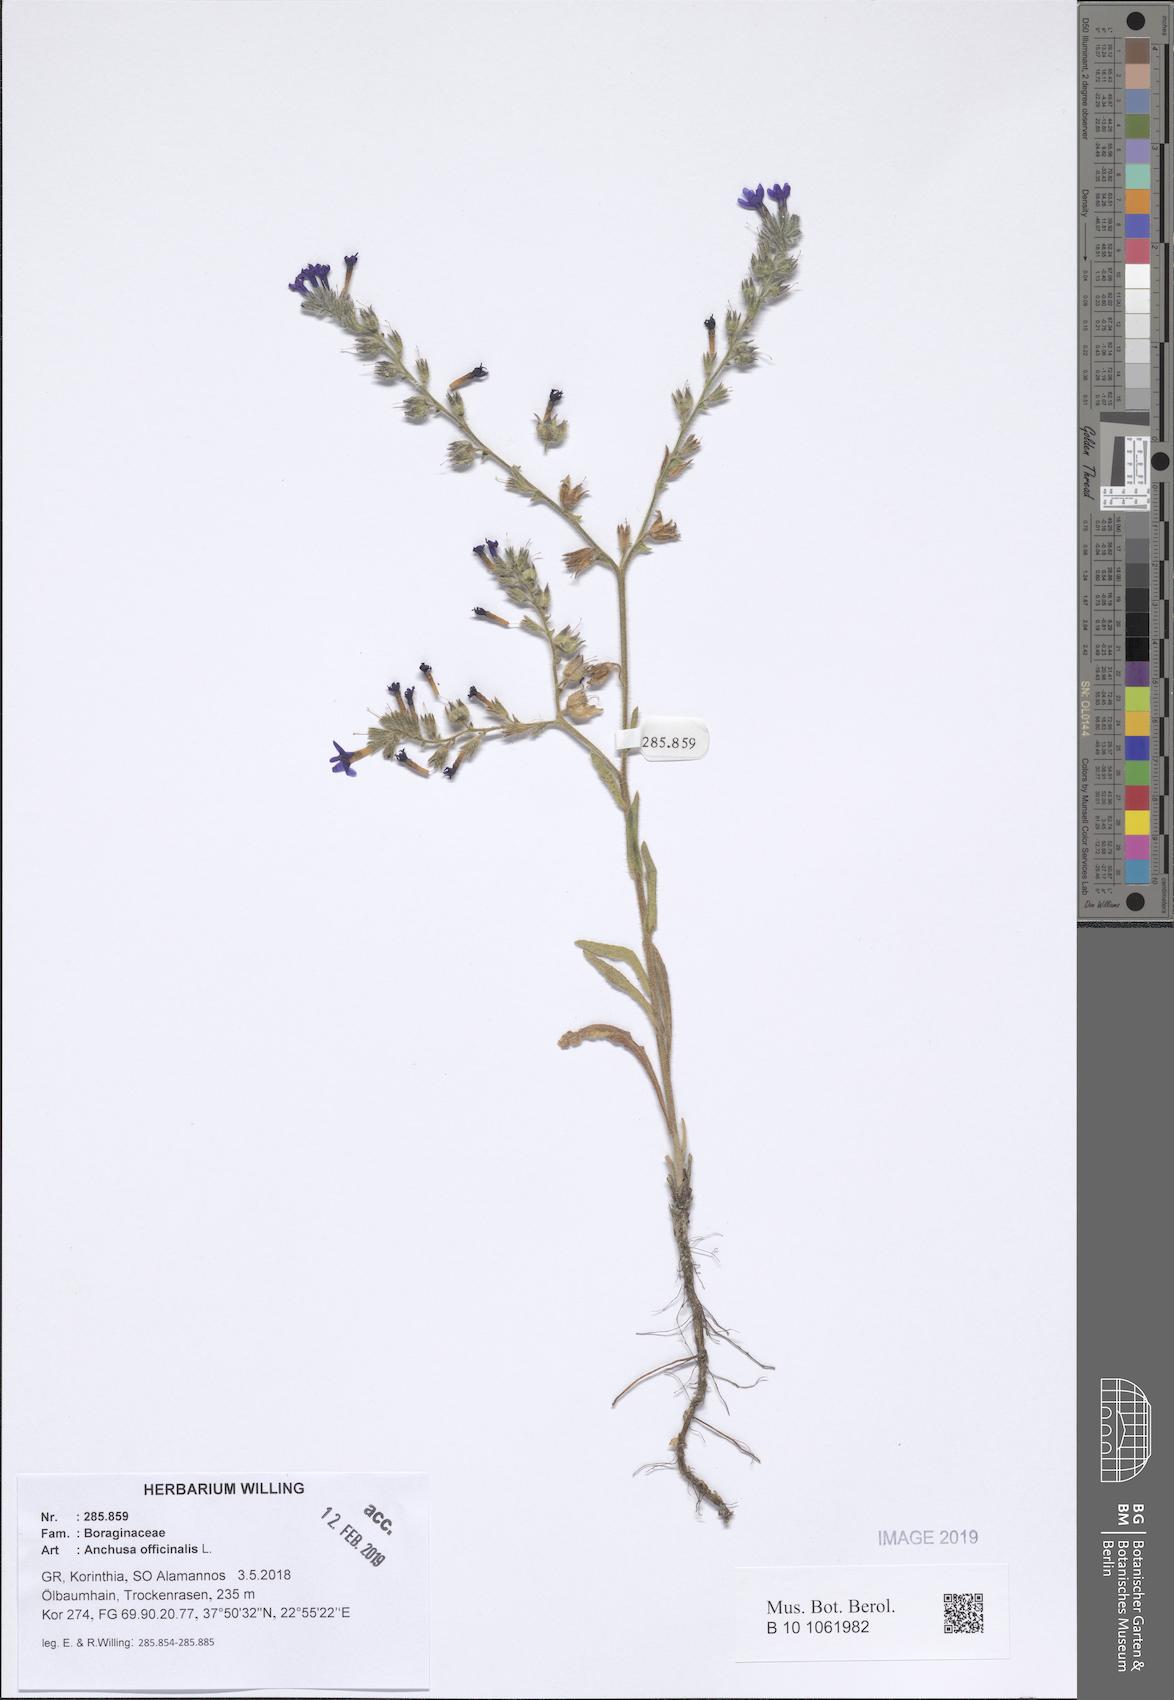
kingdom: Plantae
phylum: Tracheophyta
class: Magnoliopsida
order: Boraginales
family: Boraginaceae
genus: Anchusa
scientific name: Anchusa officinalis
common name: Alkanet
